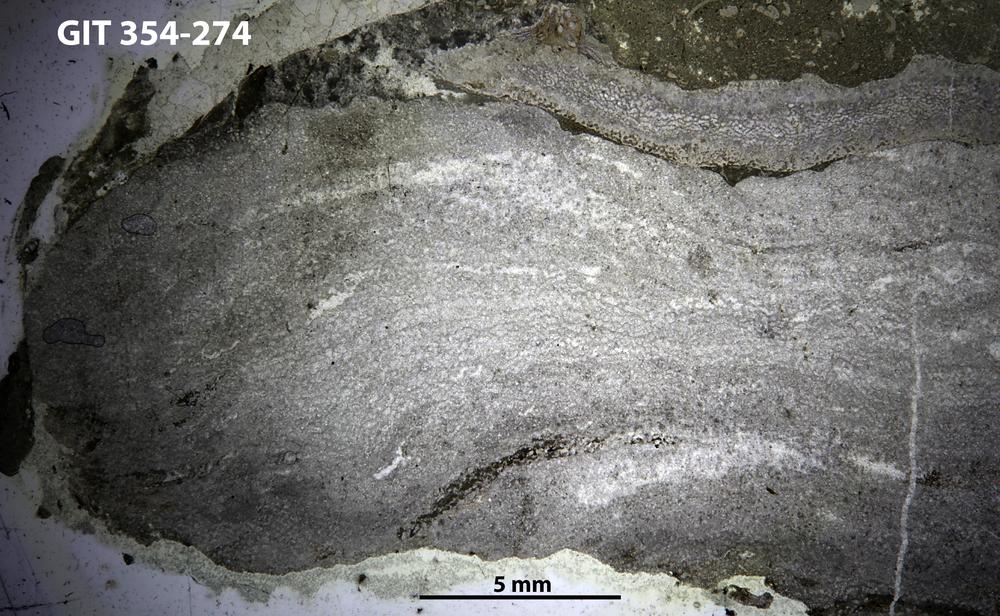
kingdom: Animalia
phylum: Porifera
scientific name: Porifera
